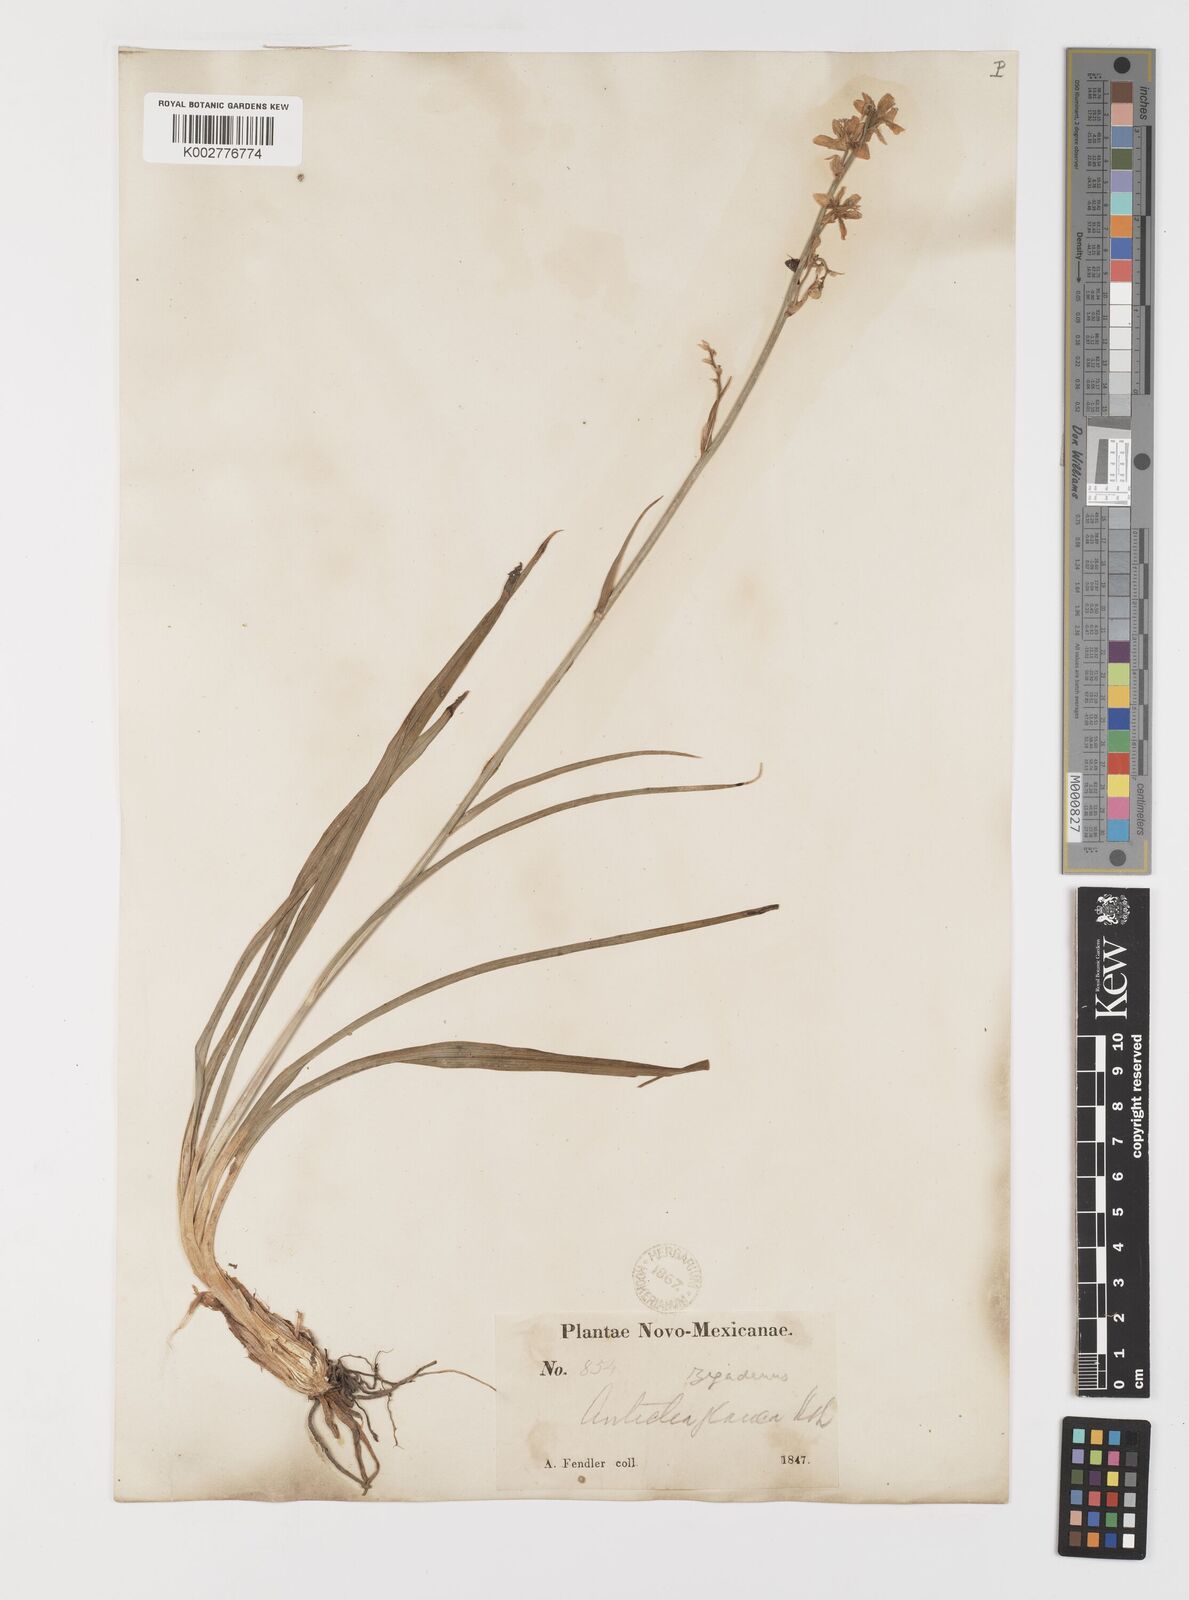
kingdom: Plantae
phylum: Tracheophyta
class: Liliopsida
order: Liliales
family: Melanthiaceae
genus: Anticlea
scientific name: Anticlea elegans
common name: Mountain death camas
